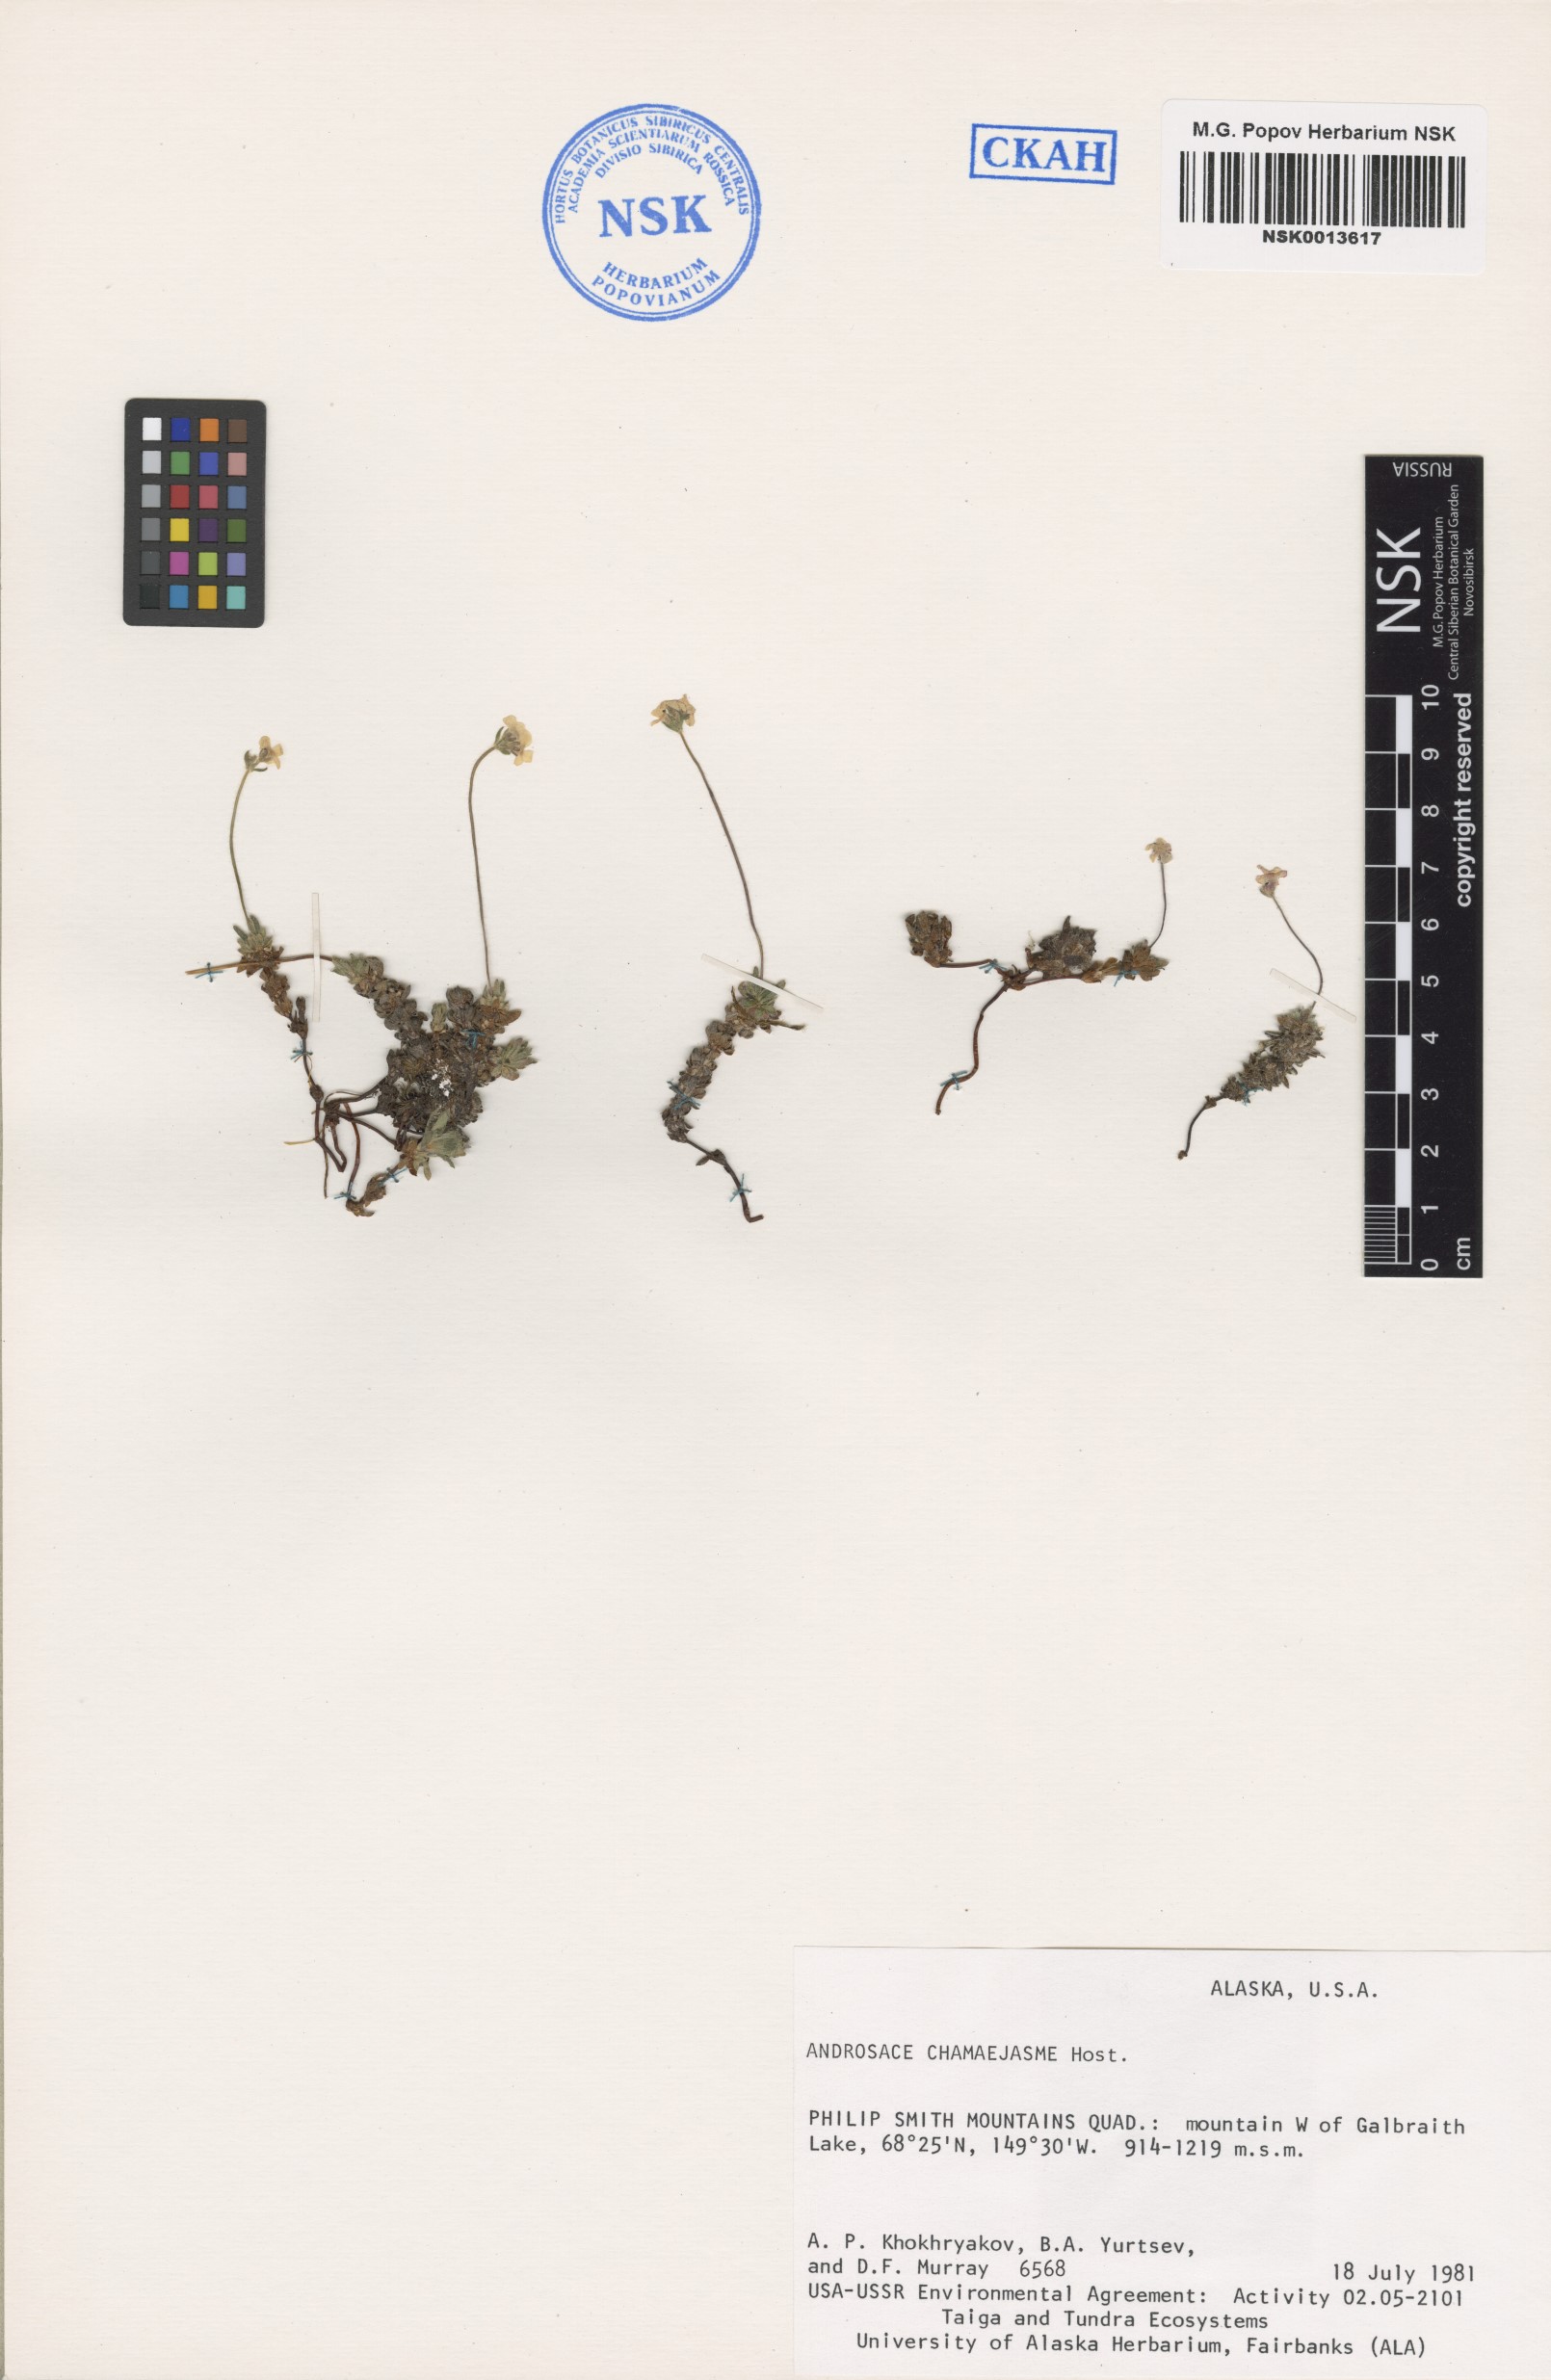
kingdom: Plantae
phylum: Tracheophyta
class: Magnoliopsida
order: Ericales
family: Primulaceae
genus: Androsace
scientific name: Androsace chamaejasme
